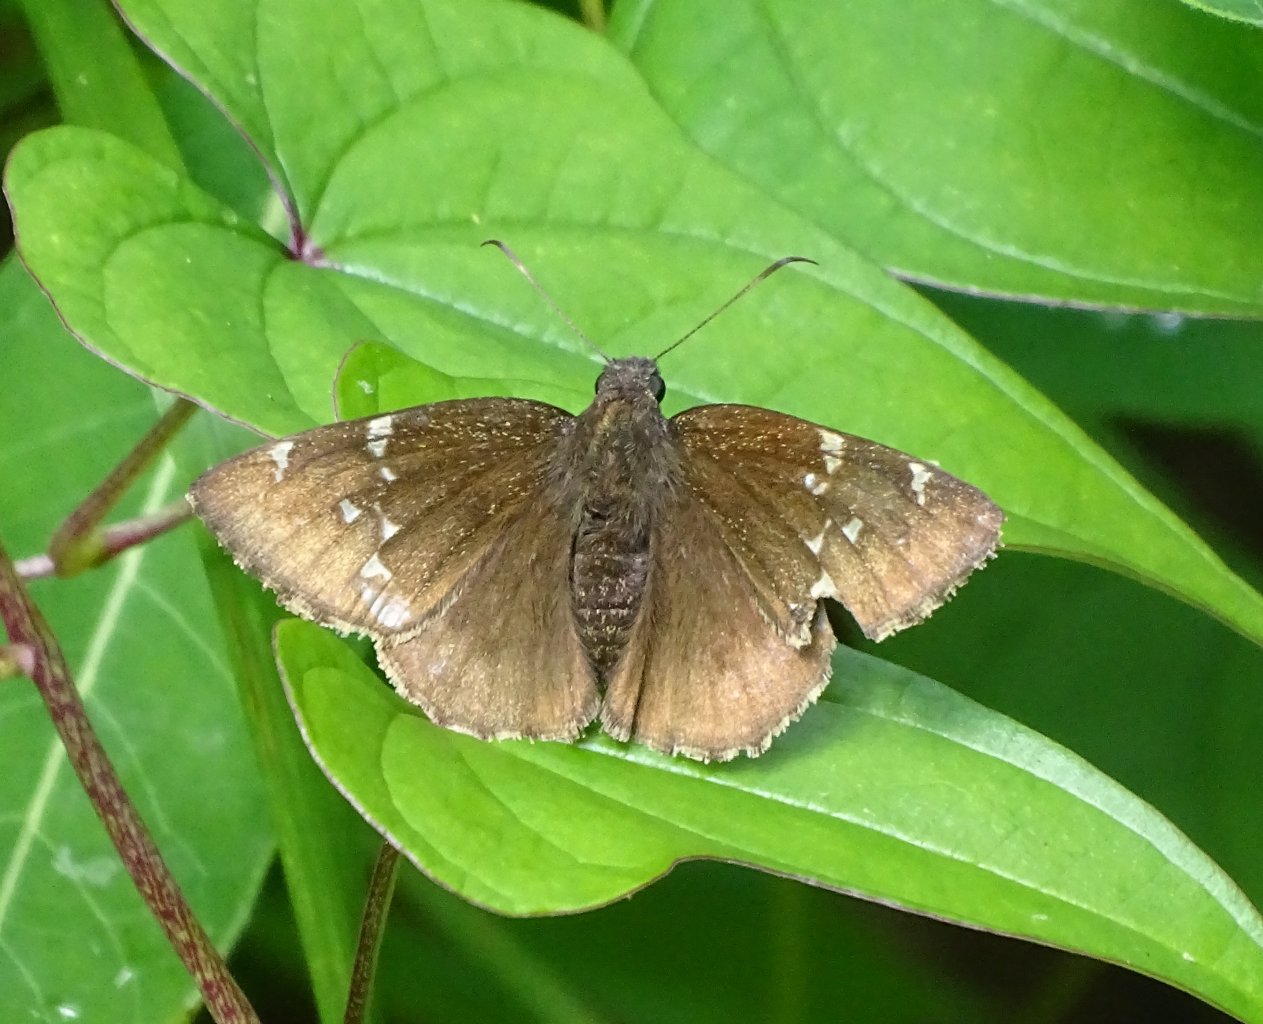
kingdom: Animalia
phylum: Arthropoda
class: Insecta
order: Lepidoptera
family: Hesperiidae
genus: Autochton
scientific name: Autochton
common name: Northern Cloudywing
